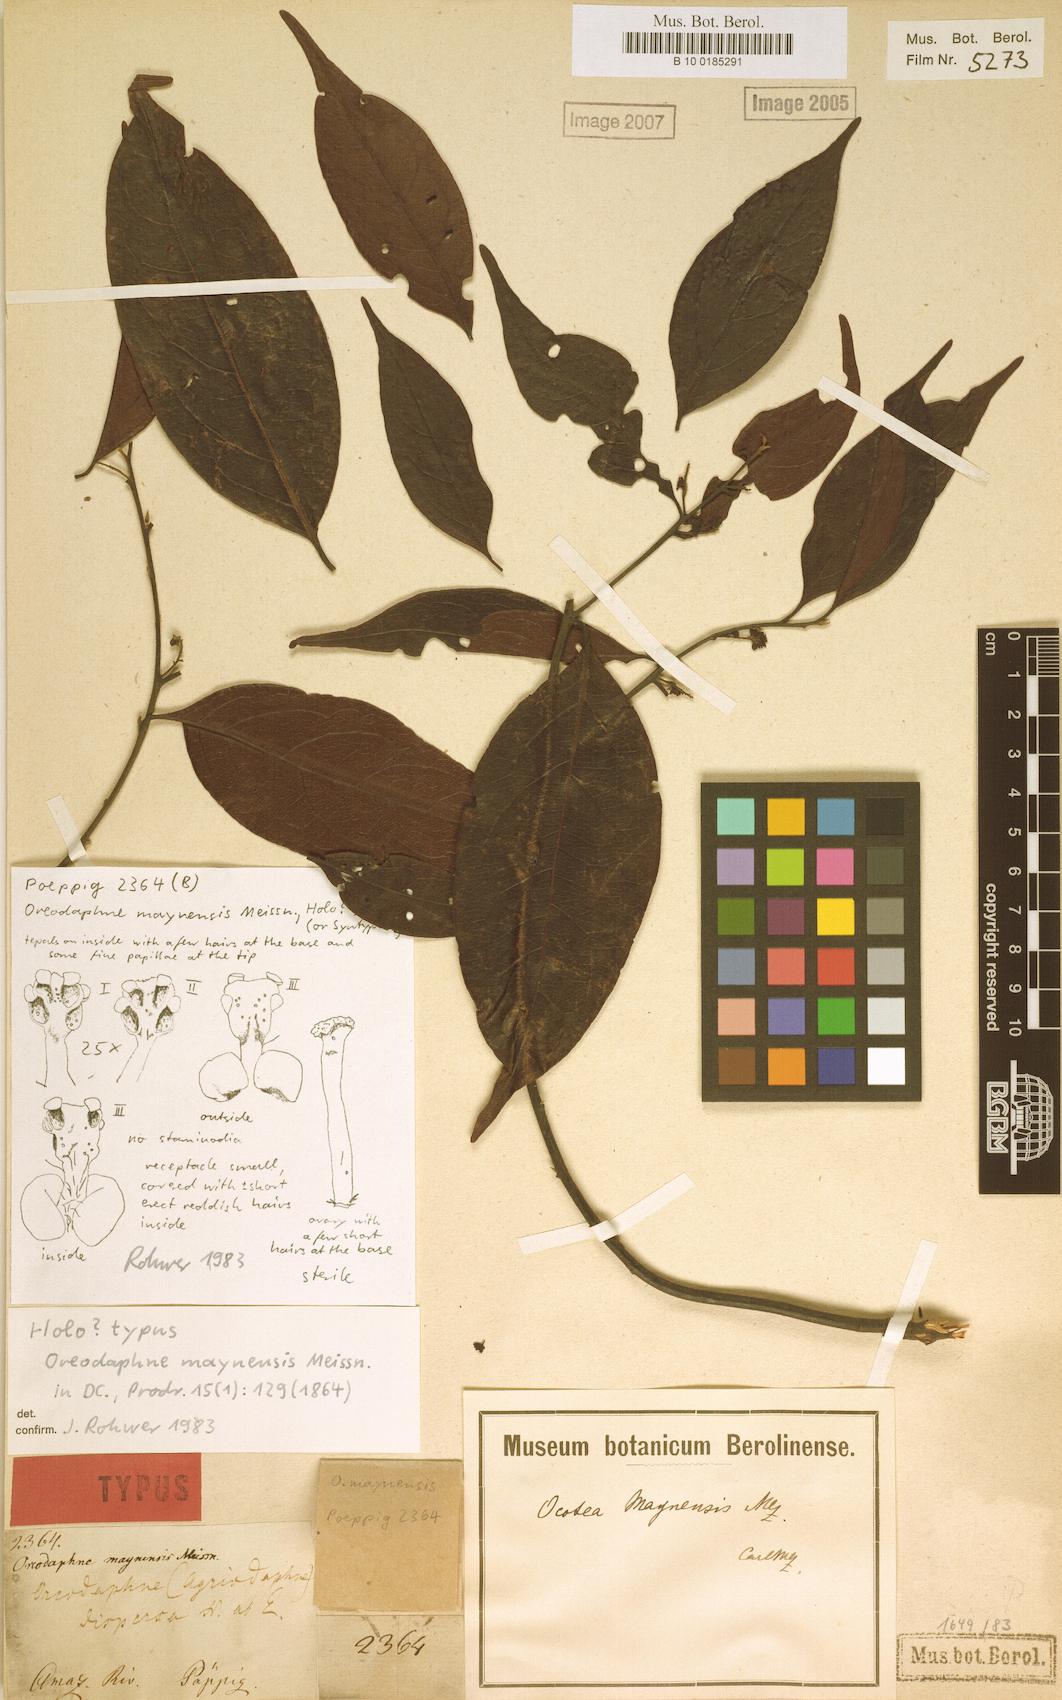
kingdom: Plantae
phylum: Tracheophyta
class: Magnoliopsida
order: Laurales
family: Lauraceae
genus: Ocotea
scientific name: Ocotea gracilis
